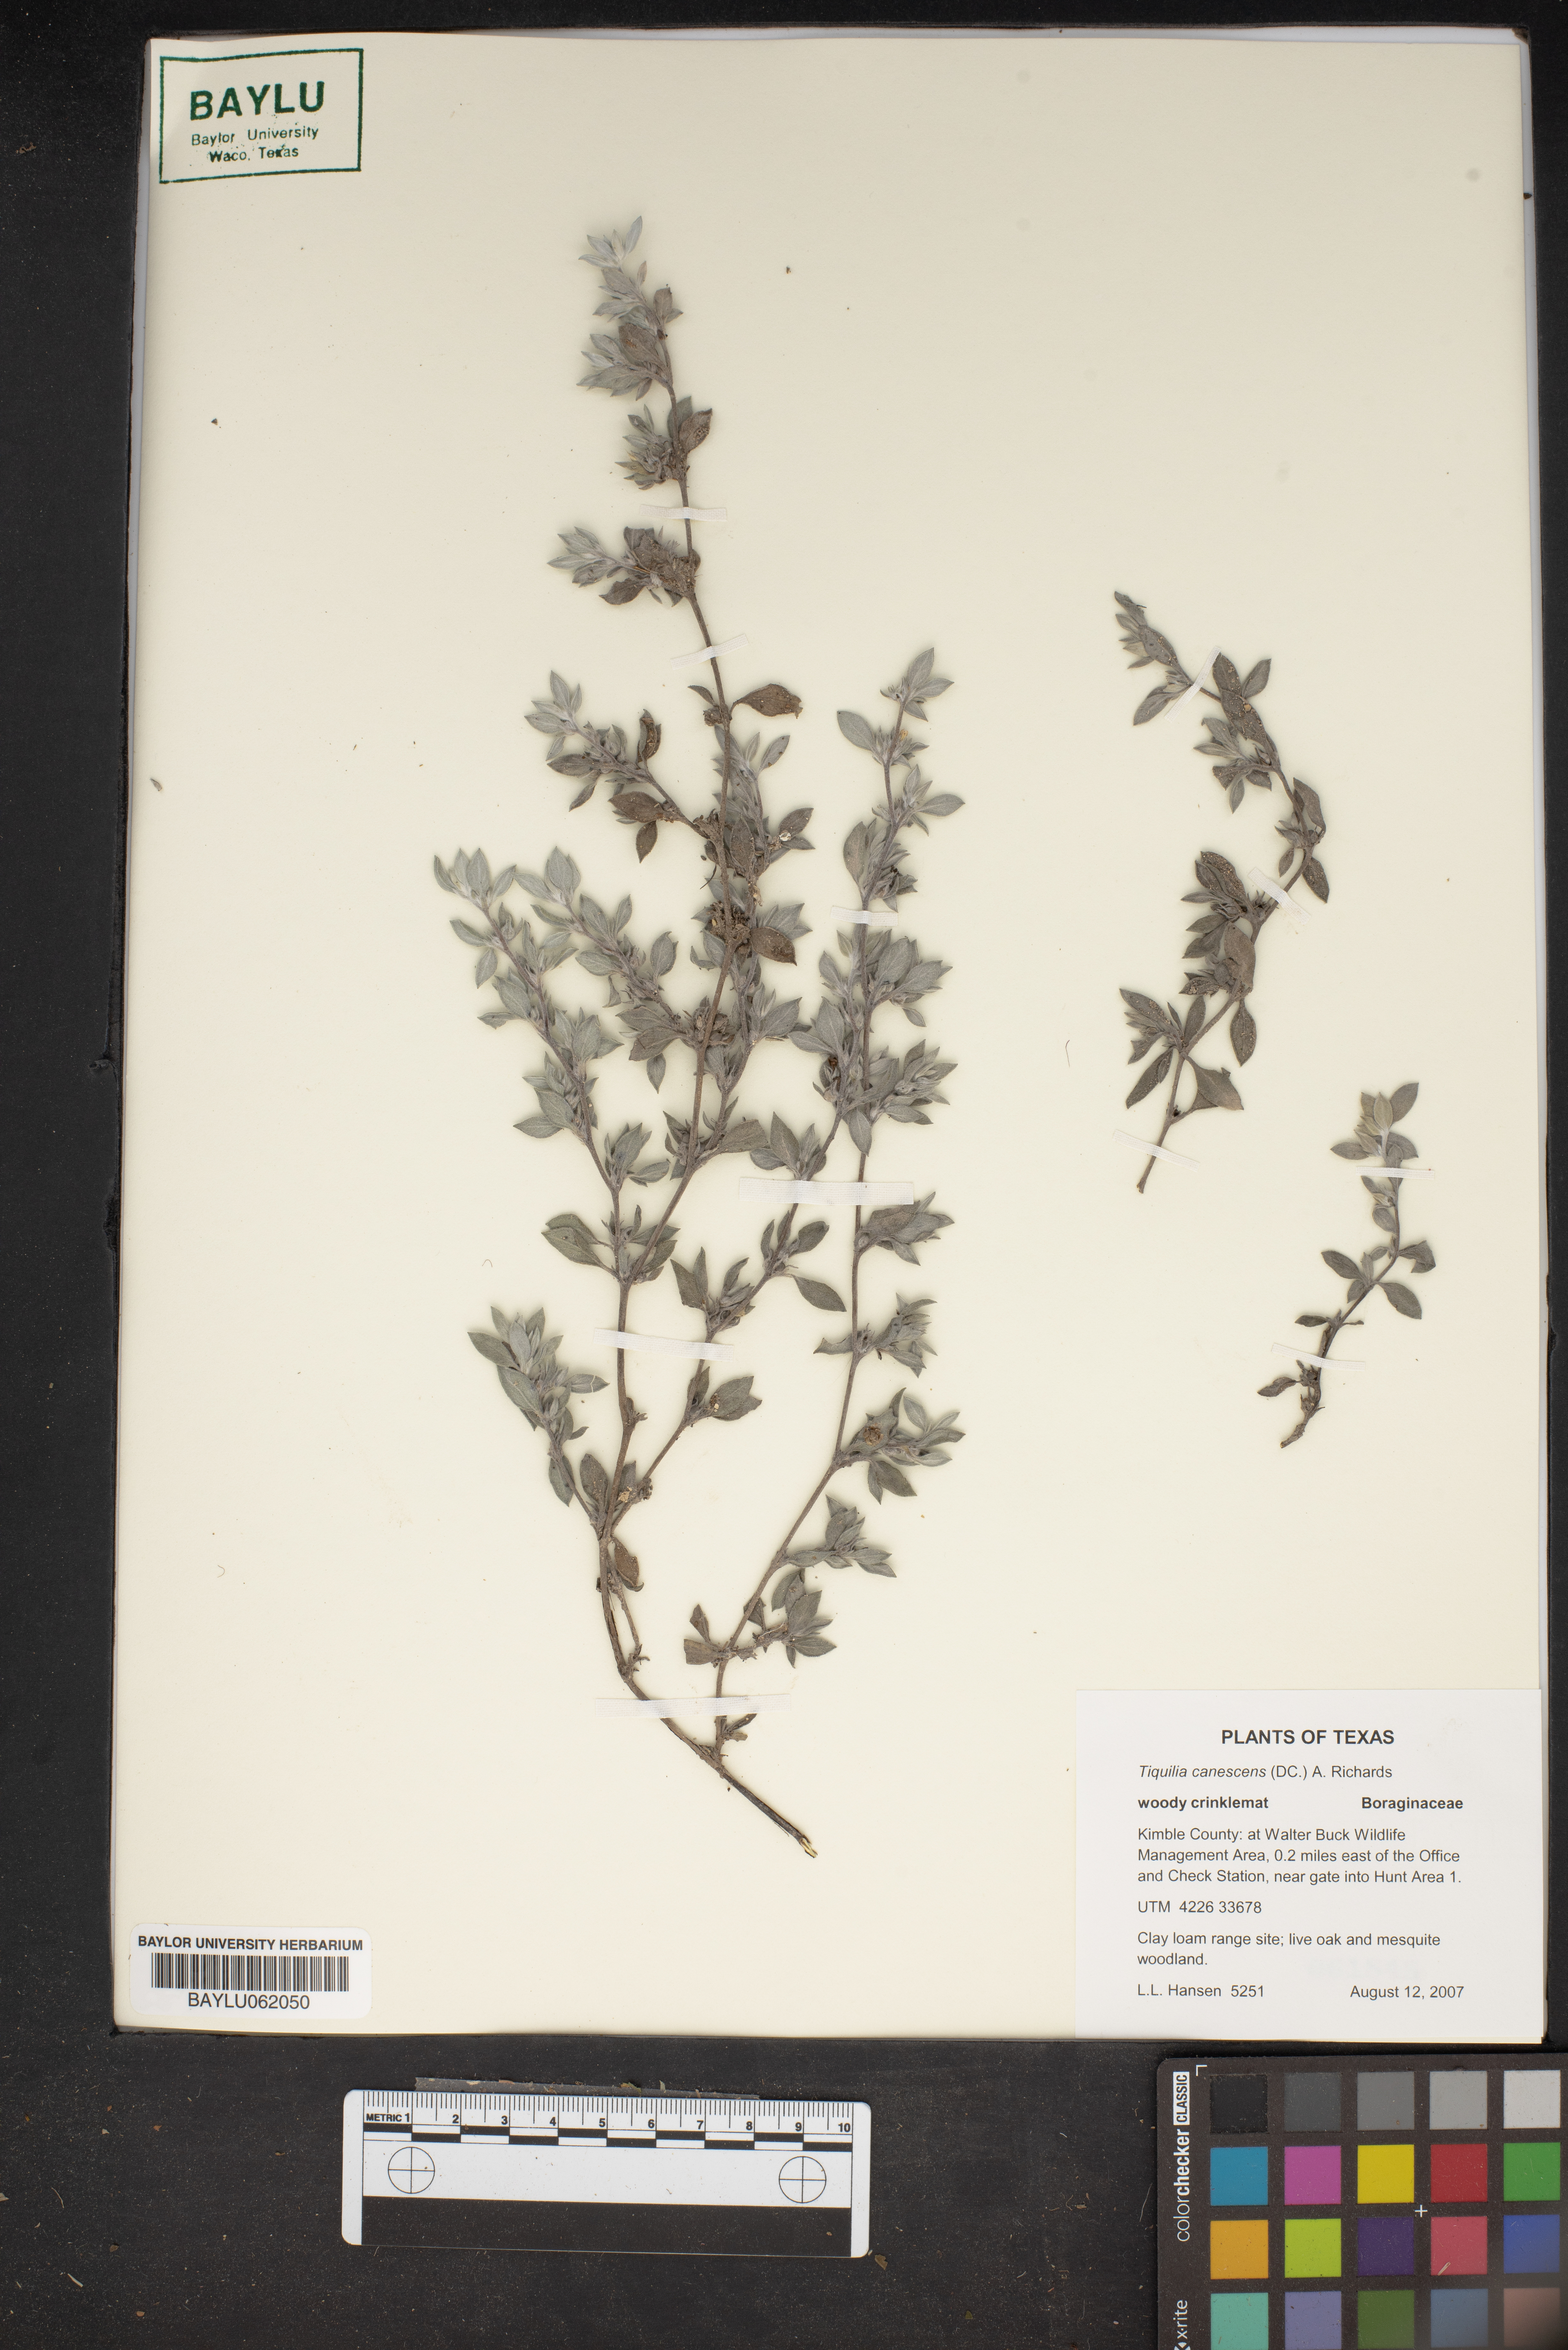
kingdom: Plantae
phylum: Tracheophyta
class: Magnoliopsida
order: Boraginales
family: Ehretiaceae
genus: Tiquilia
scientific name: Tiquilia canescens
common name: Hairy tiquilia
